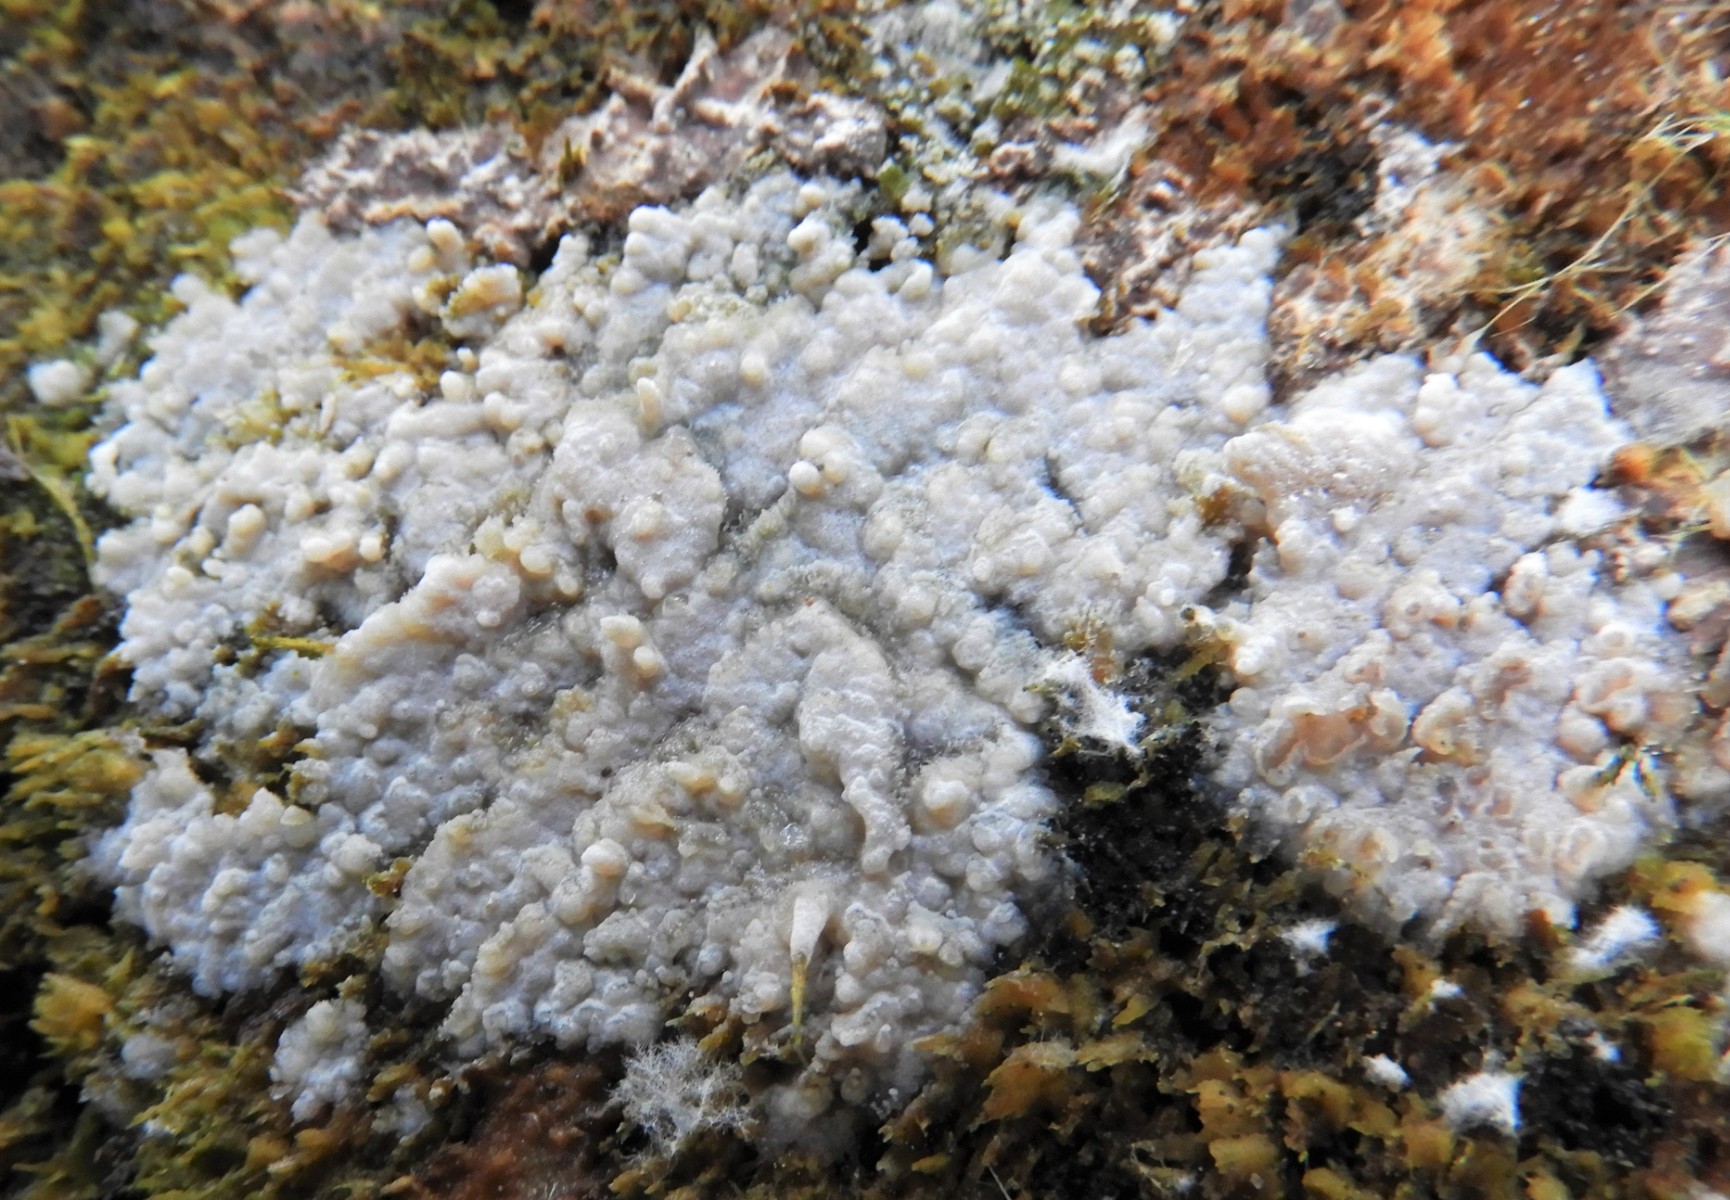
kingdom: Fungi
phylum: Basidiomycota
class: Agaricomycetes
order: Sebacinales
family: Sebacinaceae
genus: Sebacina
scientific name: Sebacina grisea
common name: blågrå bævrehinde
